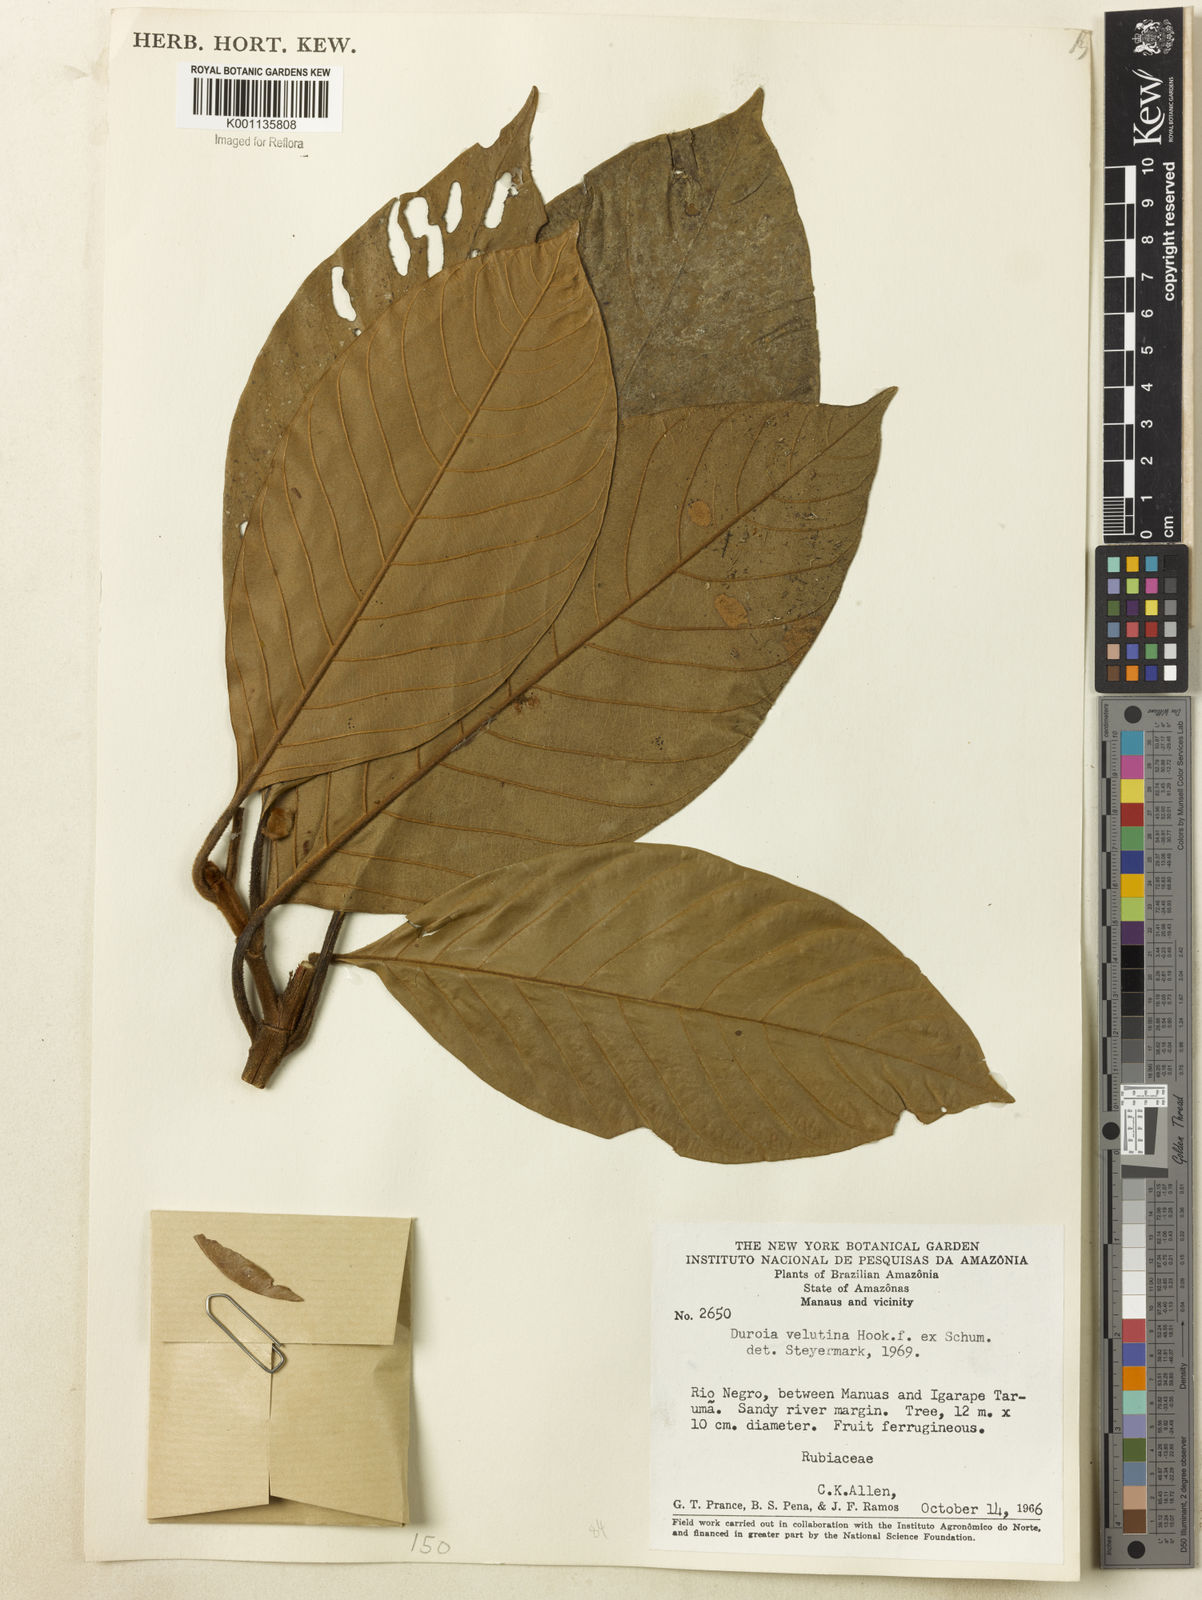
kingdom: Plantae
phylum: Tracheophyta
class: Magnoliopsida
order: Gentianales
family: Rubiaceae
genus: Duroia
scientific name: Duroia velutina
